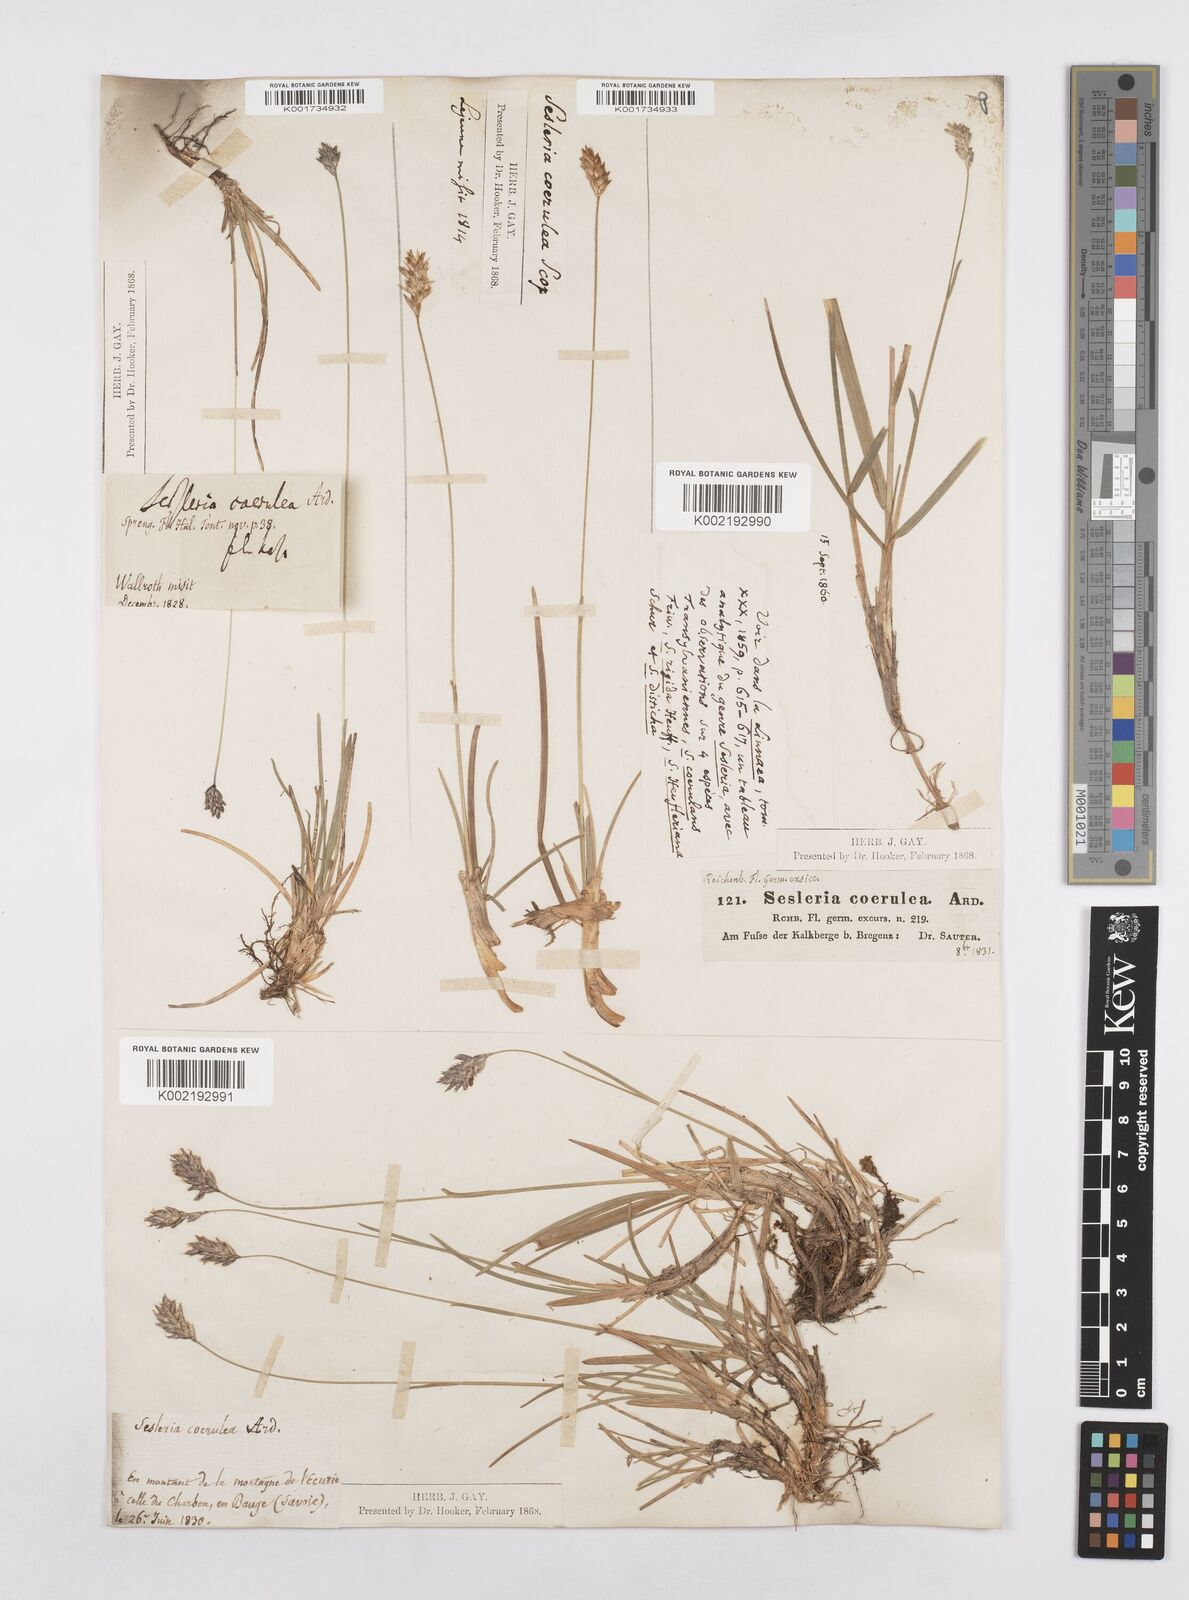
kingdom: Plantae
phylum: Tracheophyta
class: Liliopsida
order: Poales
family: Poaceae
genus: Sesleria
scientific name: Sesleria caerulea
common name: Blue moor-grass
